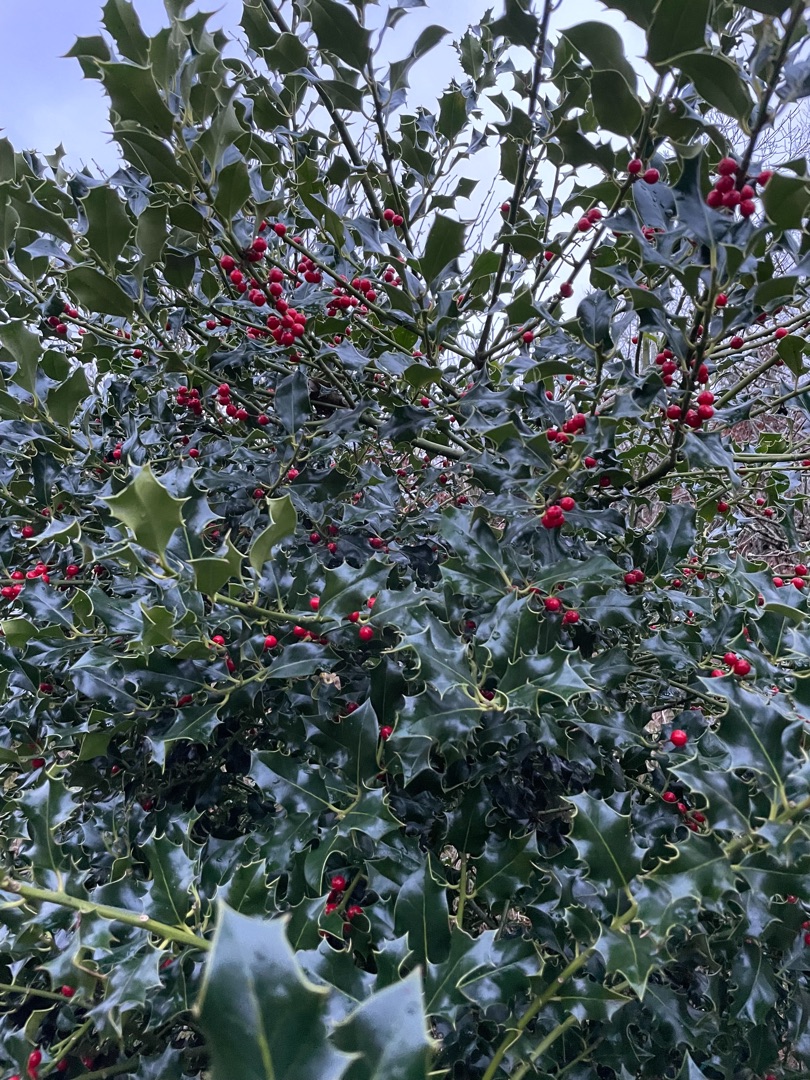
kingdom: Plantae
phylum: Tracheophyta
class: Magnoliopsida
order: Aquifoliales
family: Aquifoliaceae
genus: Ilex
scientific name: Ilex aquifolium
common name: Kristtorn
